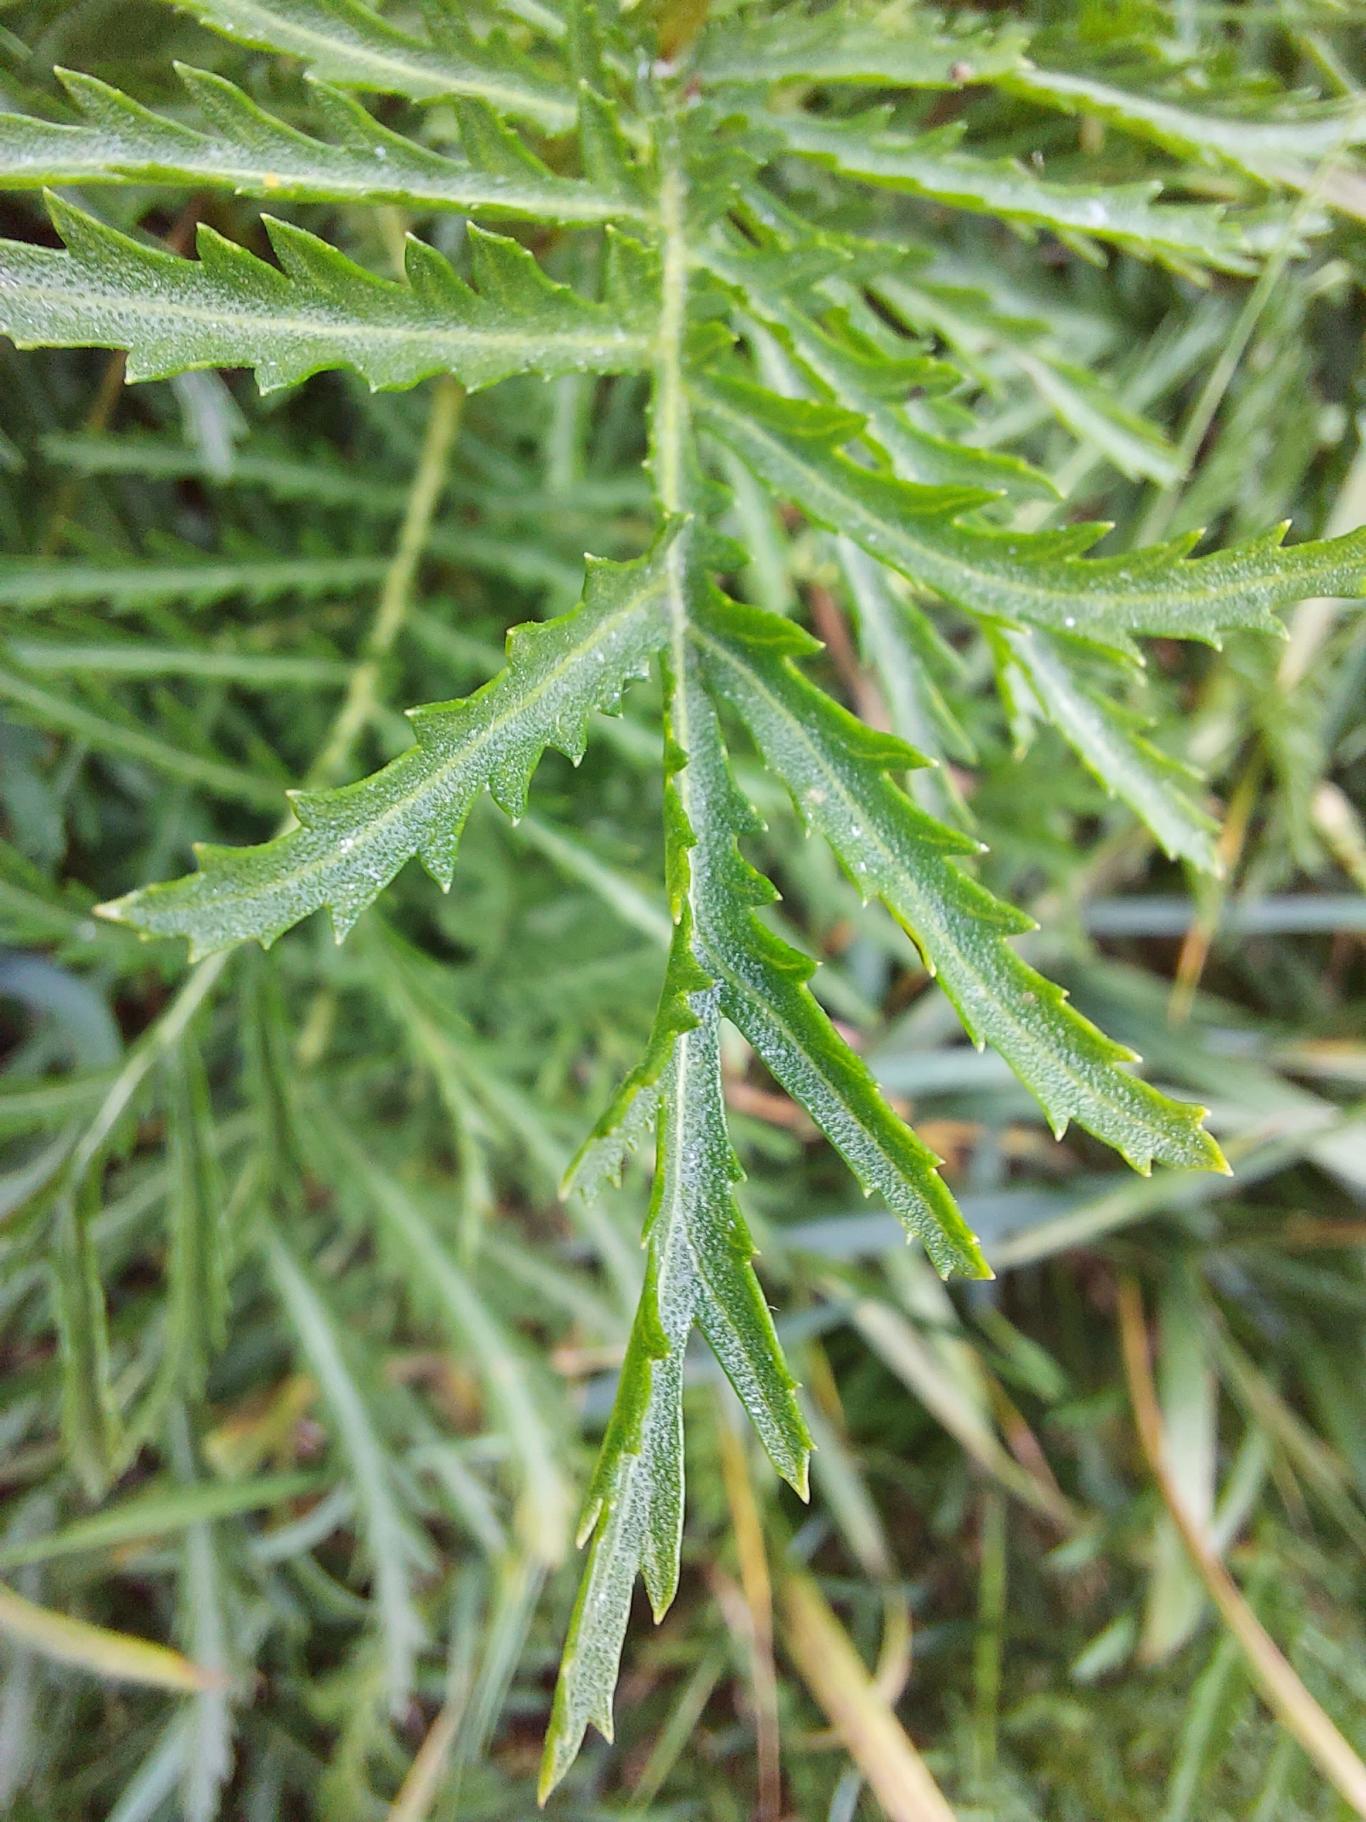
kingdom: Plantae
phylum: Tracheophyta
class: Magnoliopsida
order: Asterales
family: Asteraceae
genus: Tanacetum
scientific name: Tanacetum vulgare
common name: Rejnfan
